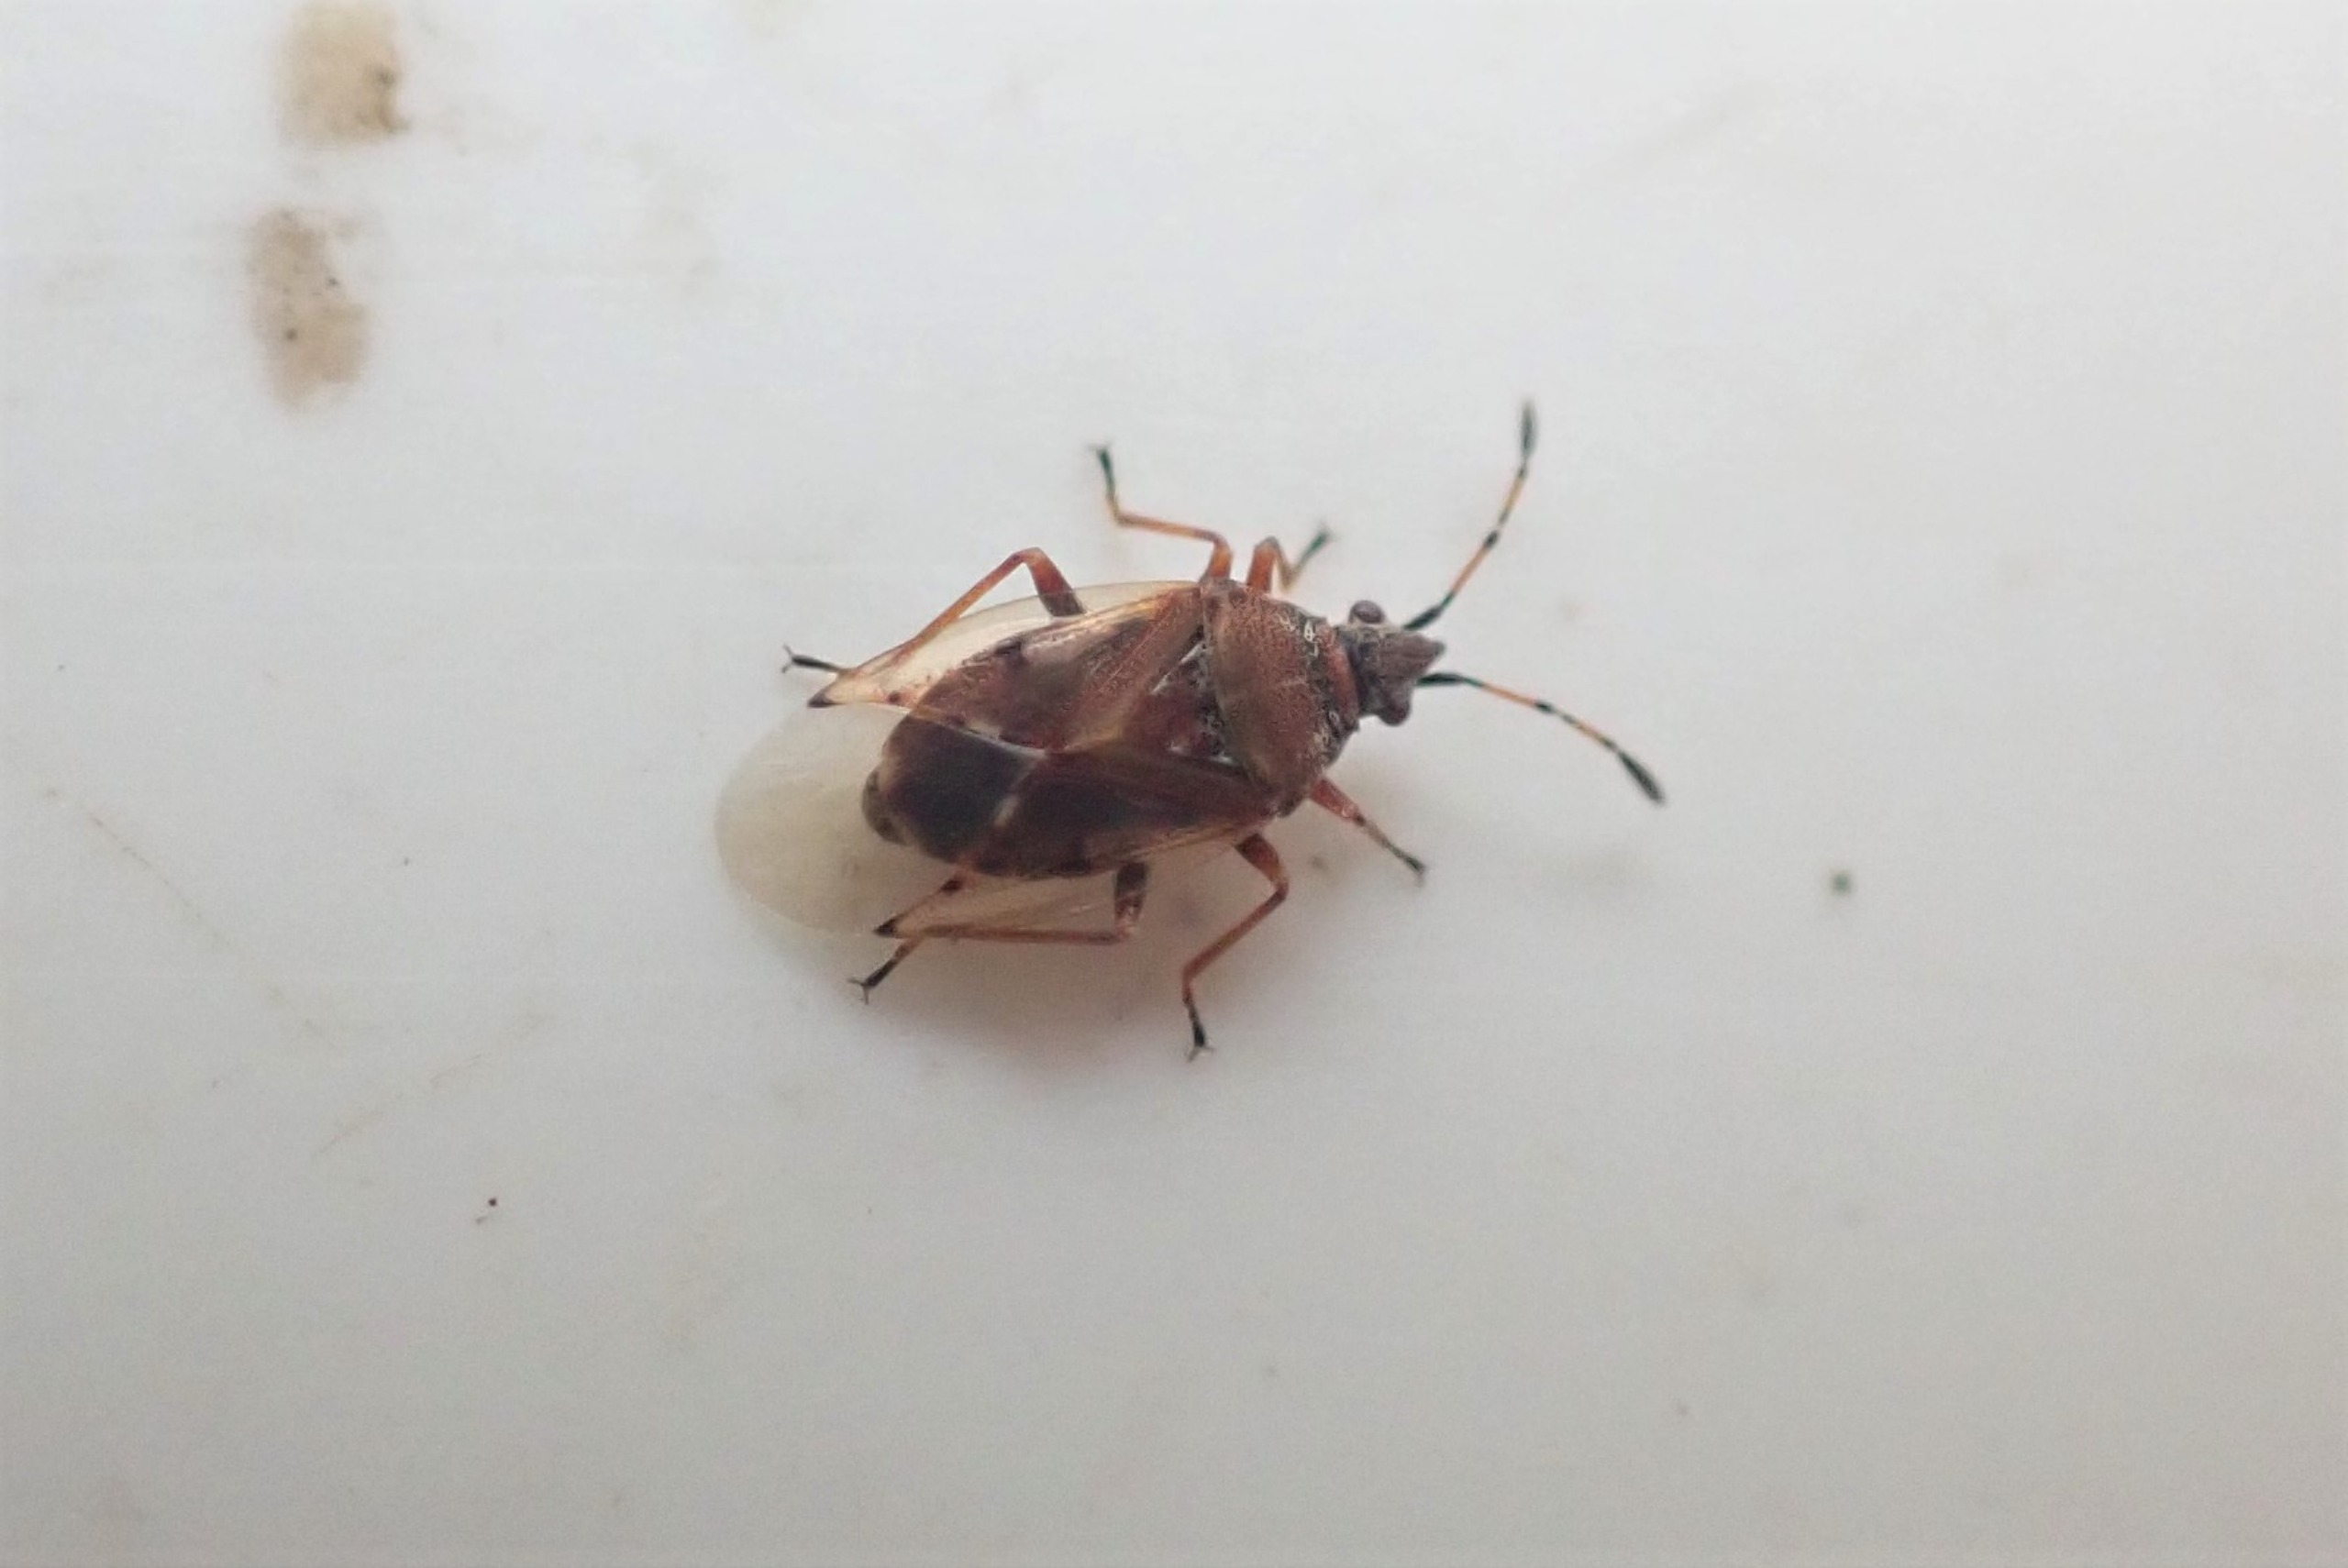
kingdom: Animalia
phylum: Arthropoda
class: Insecta
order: Hemiptera
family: Lygaeidae
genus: Kleidocerys
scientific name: Kleidocerys resedae
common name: Birkefrøtæge
